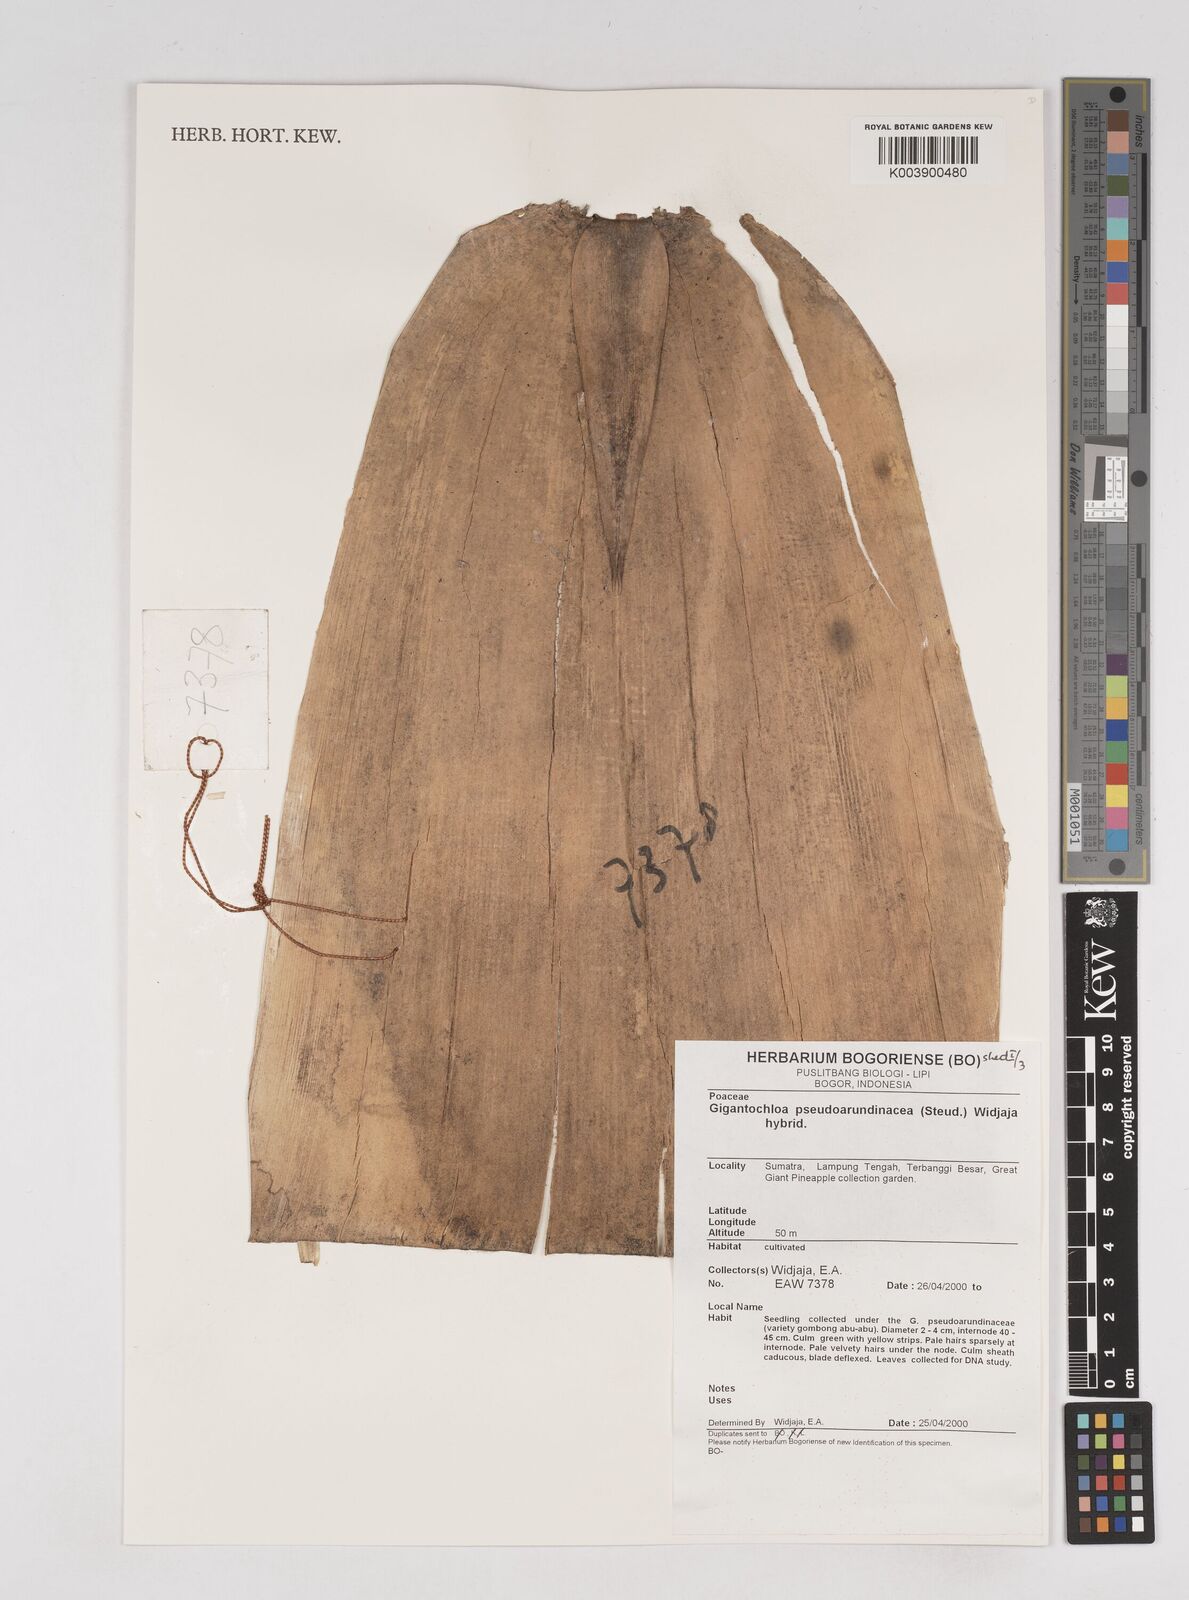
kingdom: Plantae
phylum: Tracheophyta
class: Liliopsida
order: Poales
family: Poaceae
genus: Gigantochloa
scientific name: Gigantochloa verticillata
